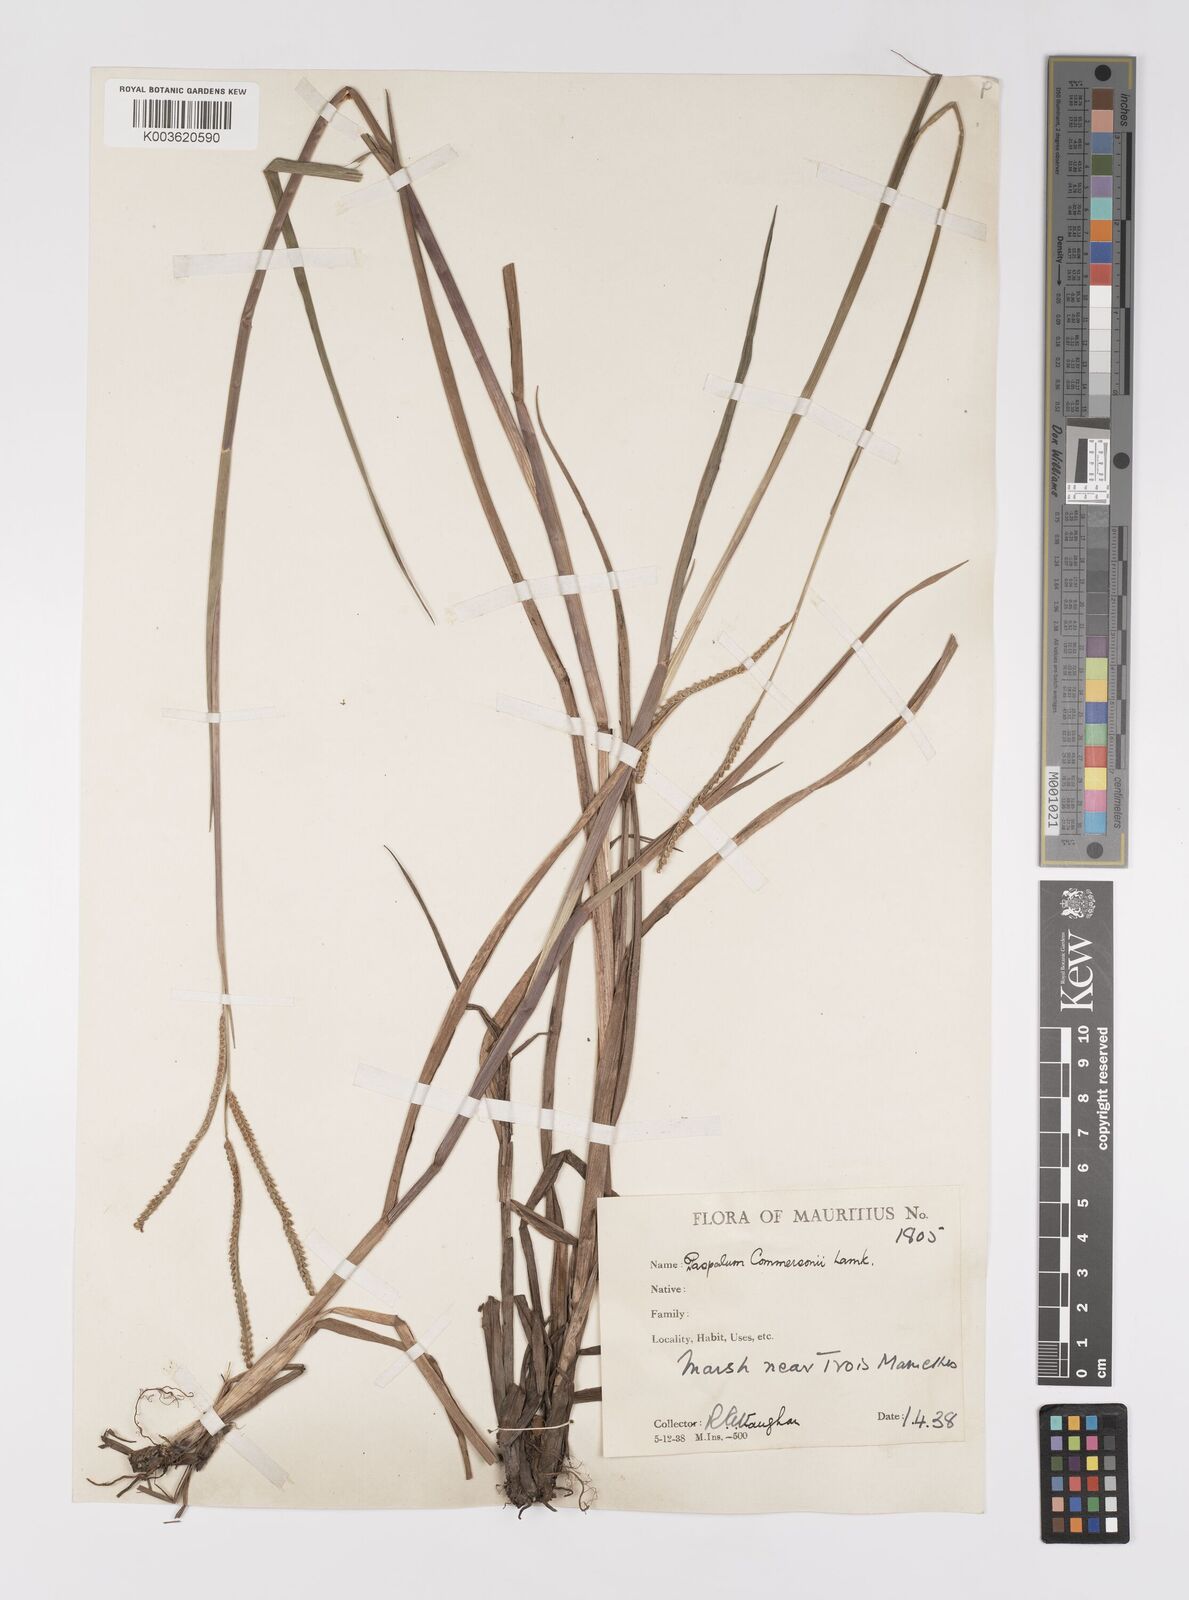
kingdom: Plantae
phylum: Tracheophyta
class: Liliopsida
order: Poales
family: Poaceae
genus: Paspalum
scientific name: Paspalum scrobiculatum
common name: Kodo millet
